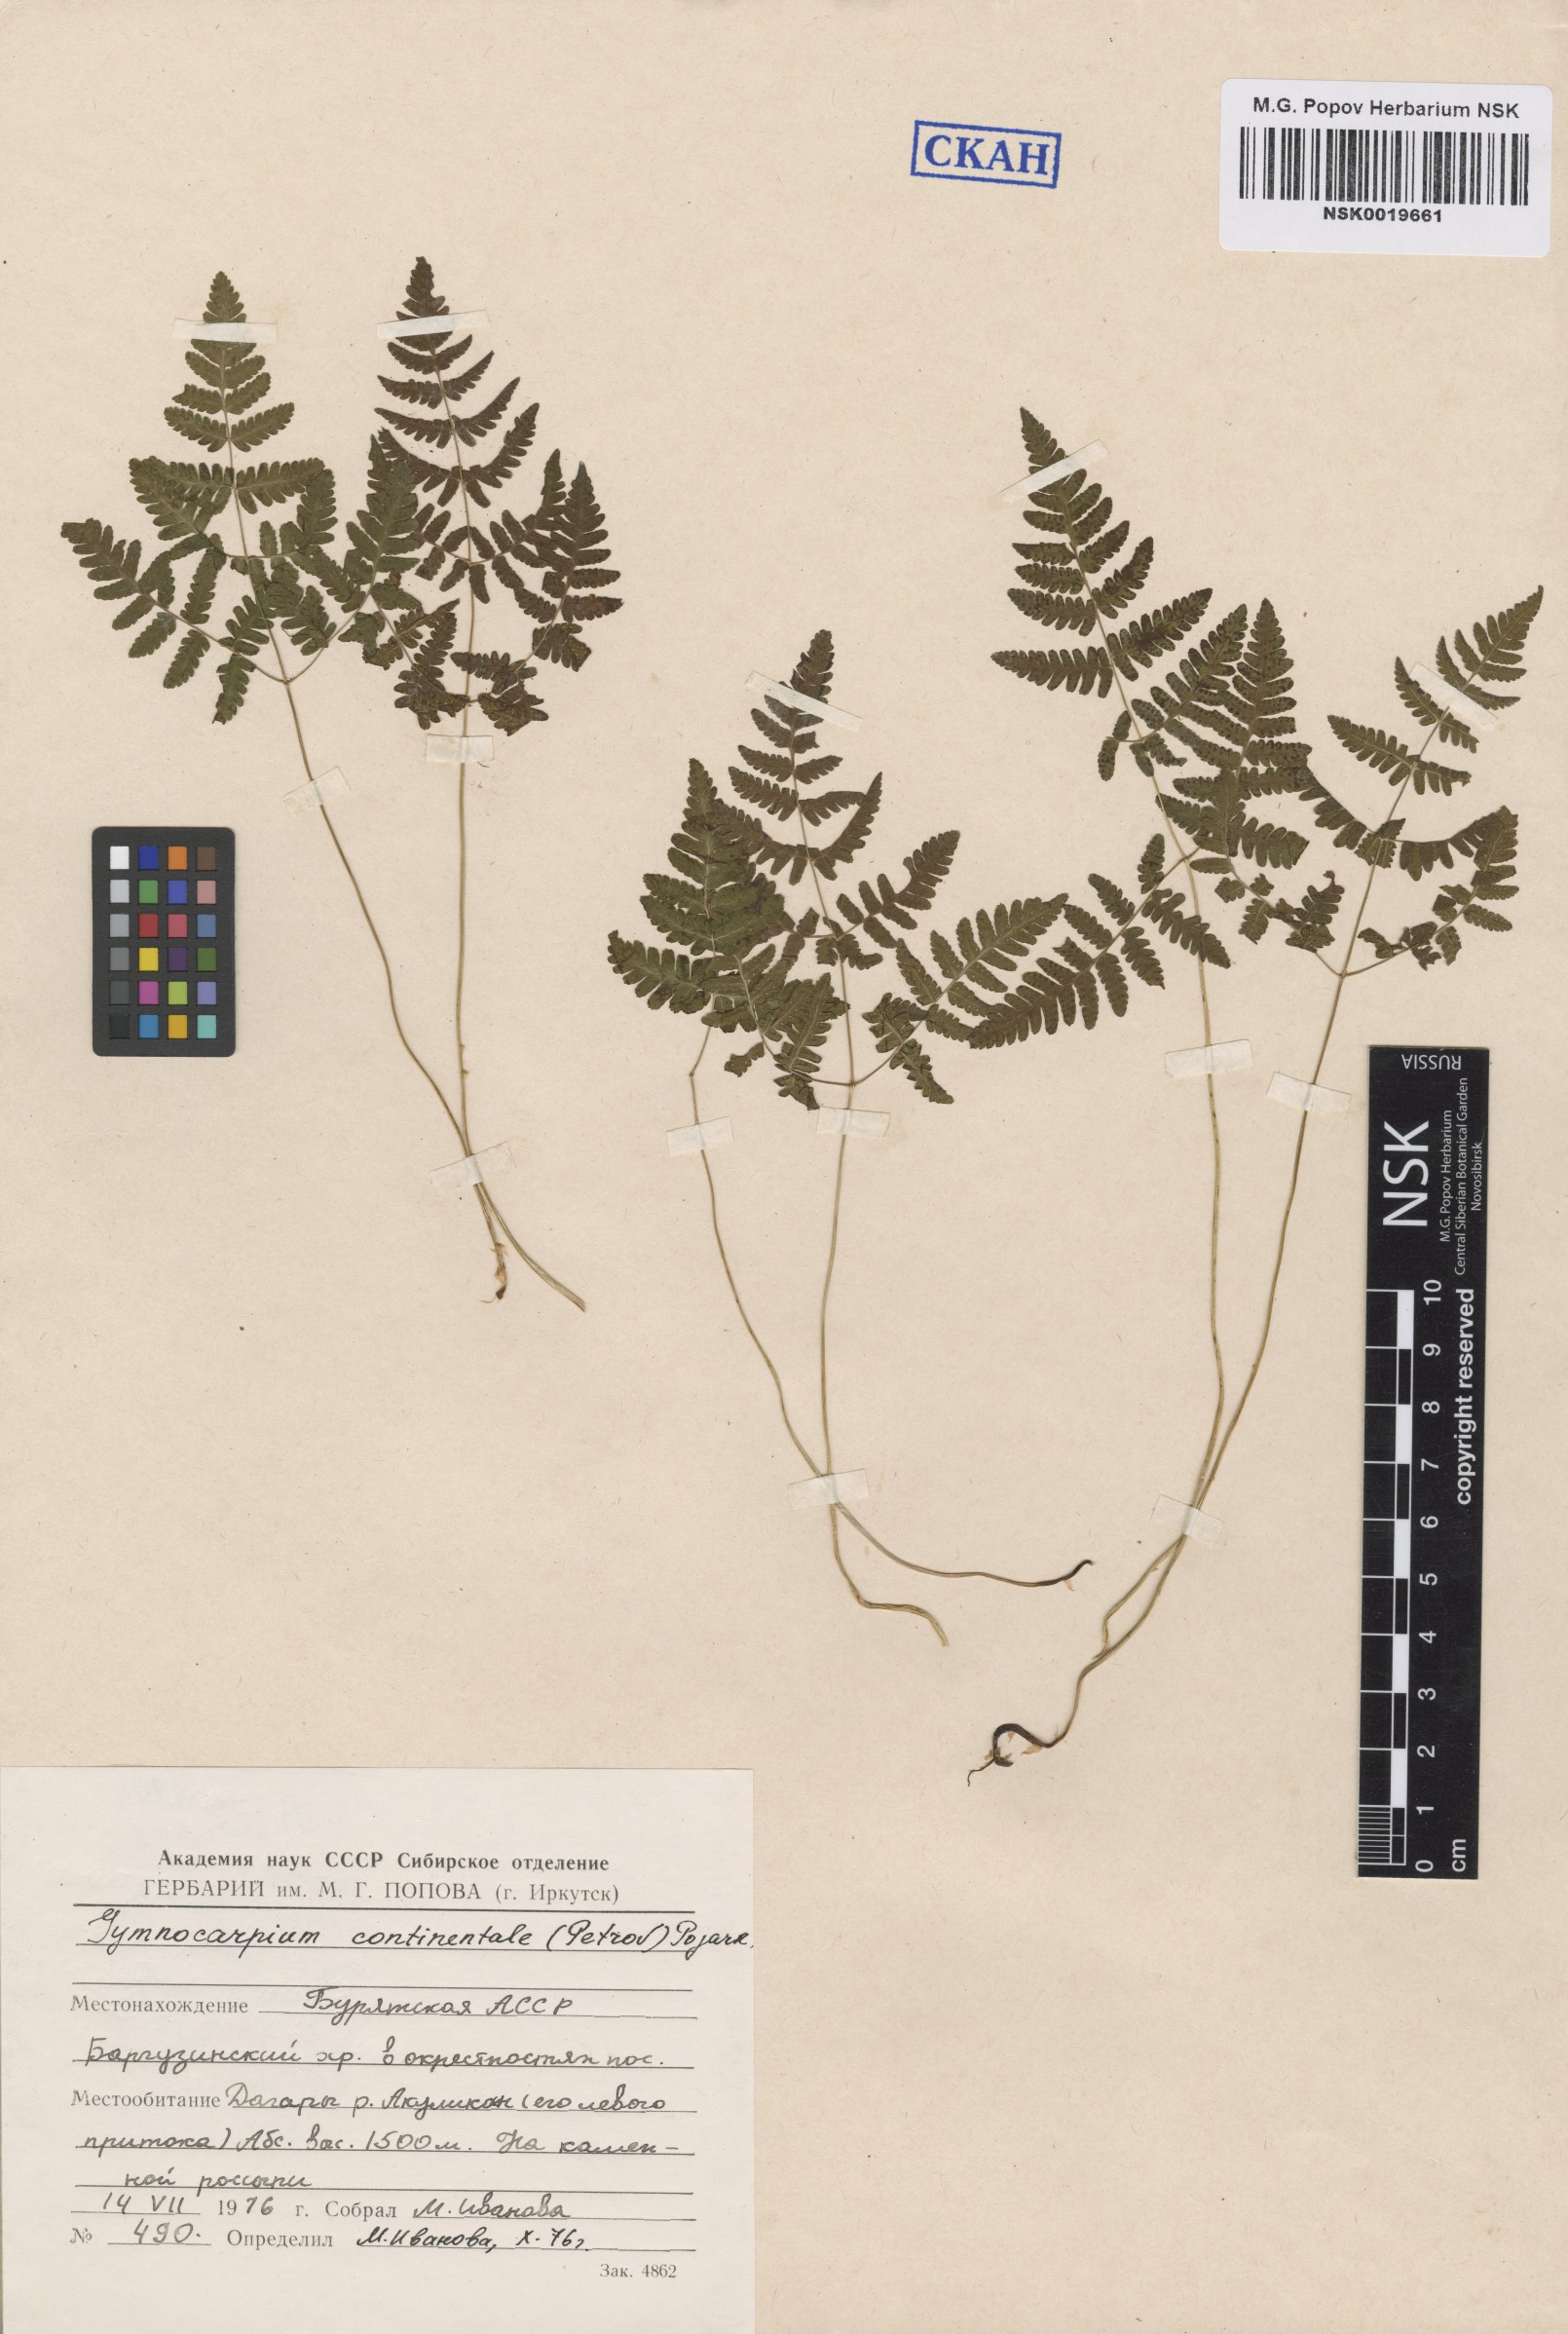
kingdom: Plantae
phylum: Tracheophyta
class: Polypodiopsida
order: Polypodiales
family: Cystopteridaceae
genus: Gymnocarpium
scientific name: Gymnocarpium continentale
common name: Asian oak fern
